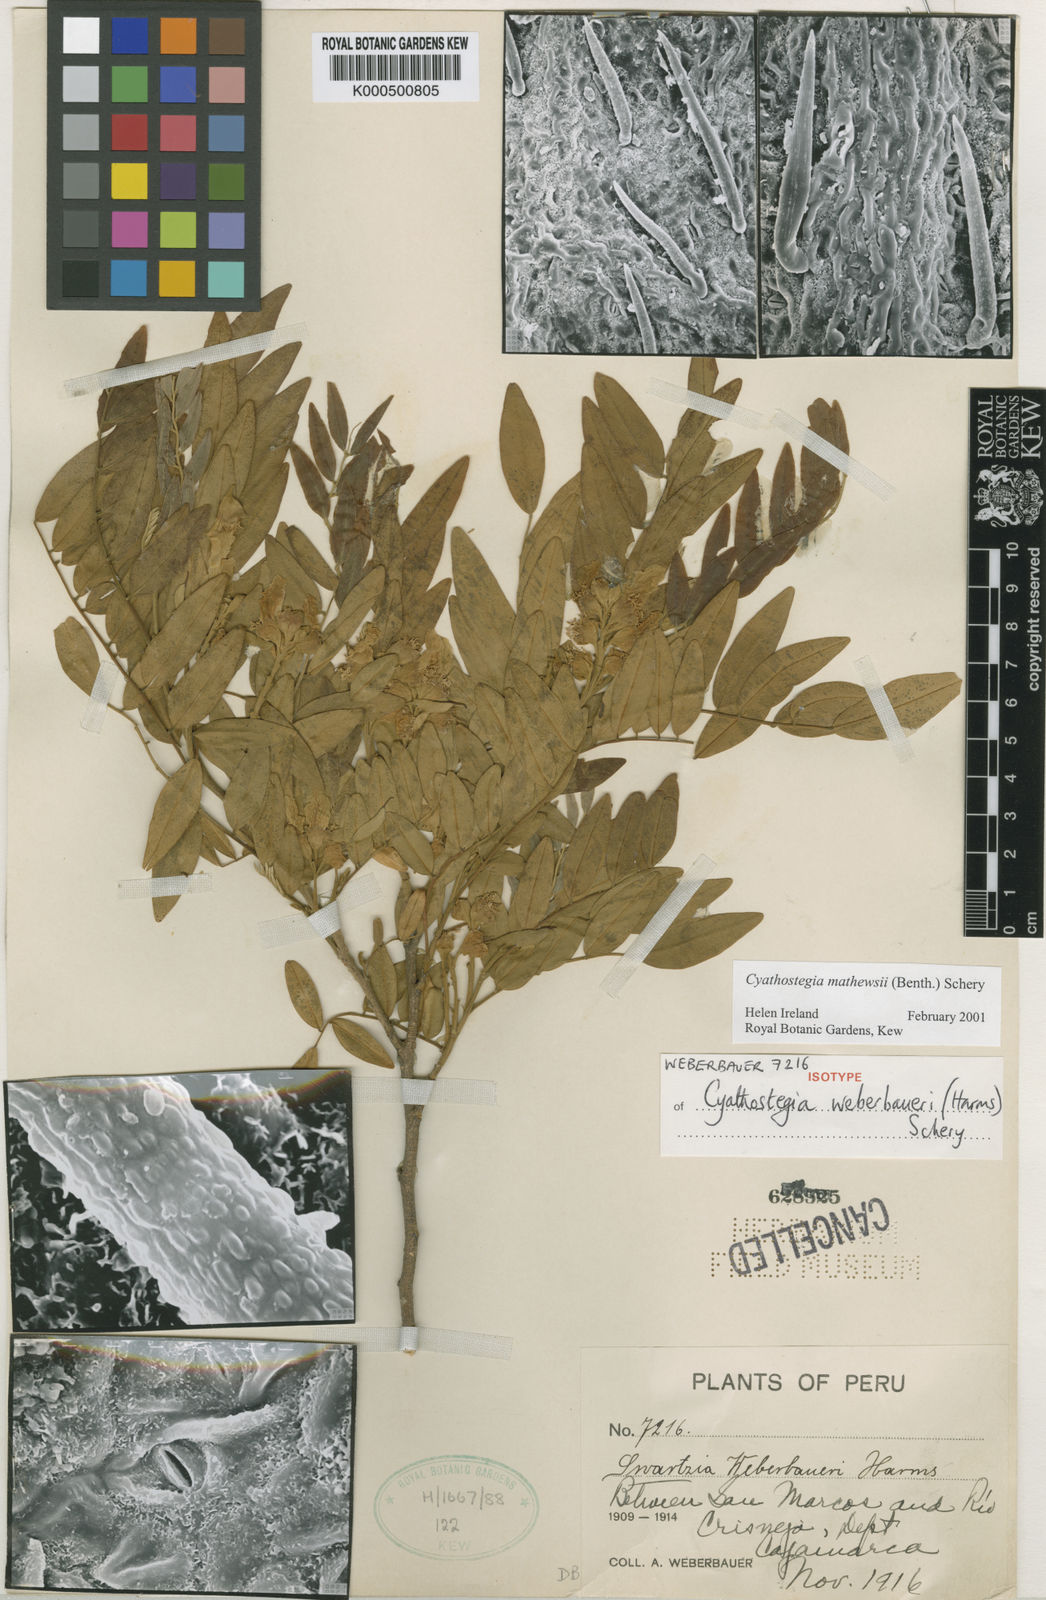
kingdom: Plantae
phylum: Tracheophyta
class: Magnoliopsida
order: Fabales
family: Fabaceae
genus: Cyathostegia
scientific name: Cyathostegia matthewsii
